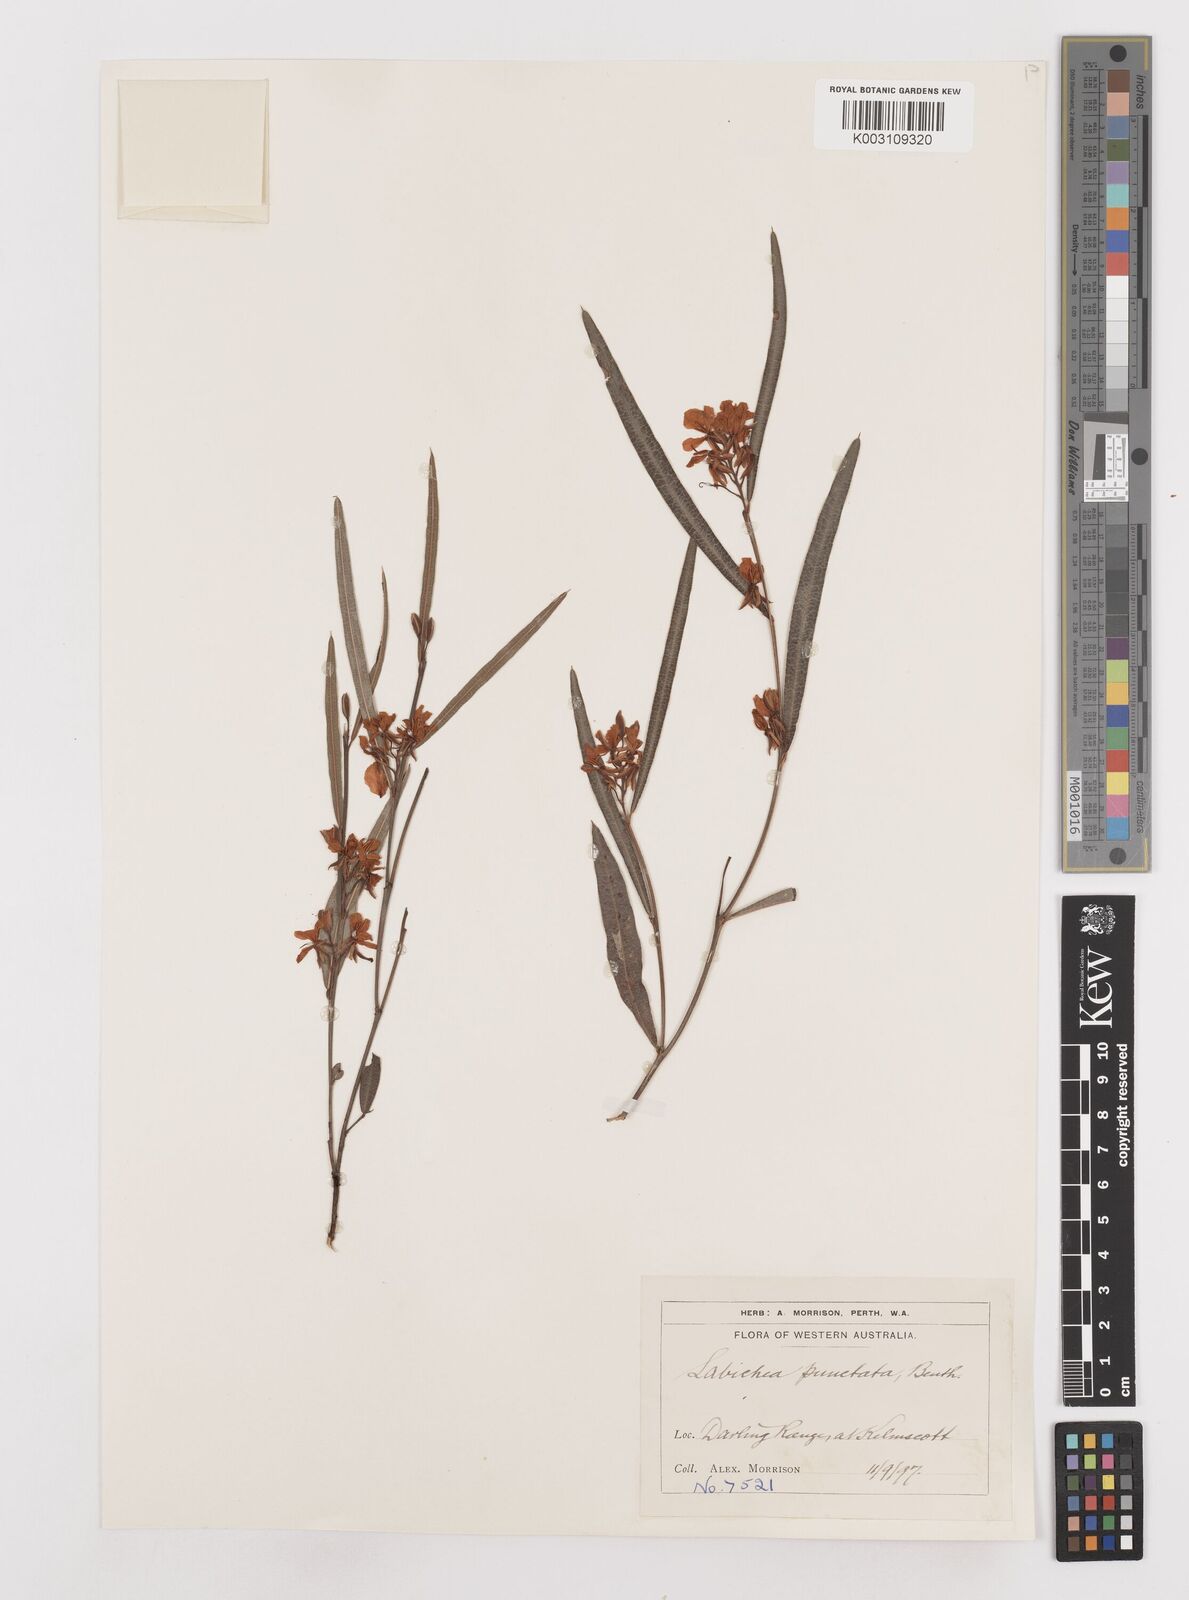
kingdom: Plantae
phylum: Tracheophyta
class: Magnoliopsida
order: Fabales
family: Fabaceae
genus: Labichea
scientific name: Labichea punctata
